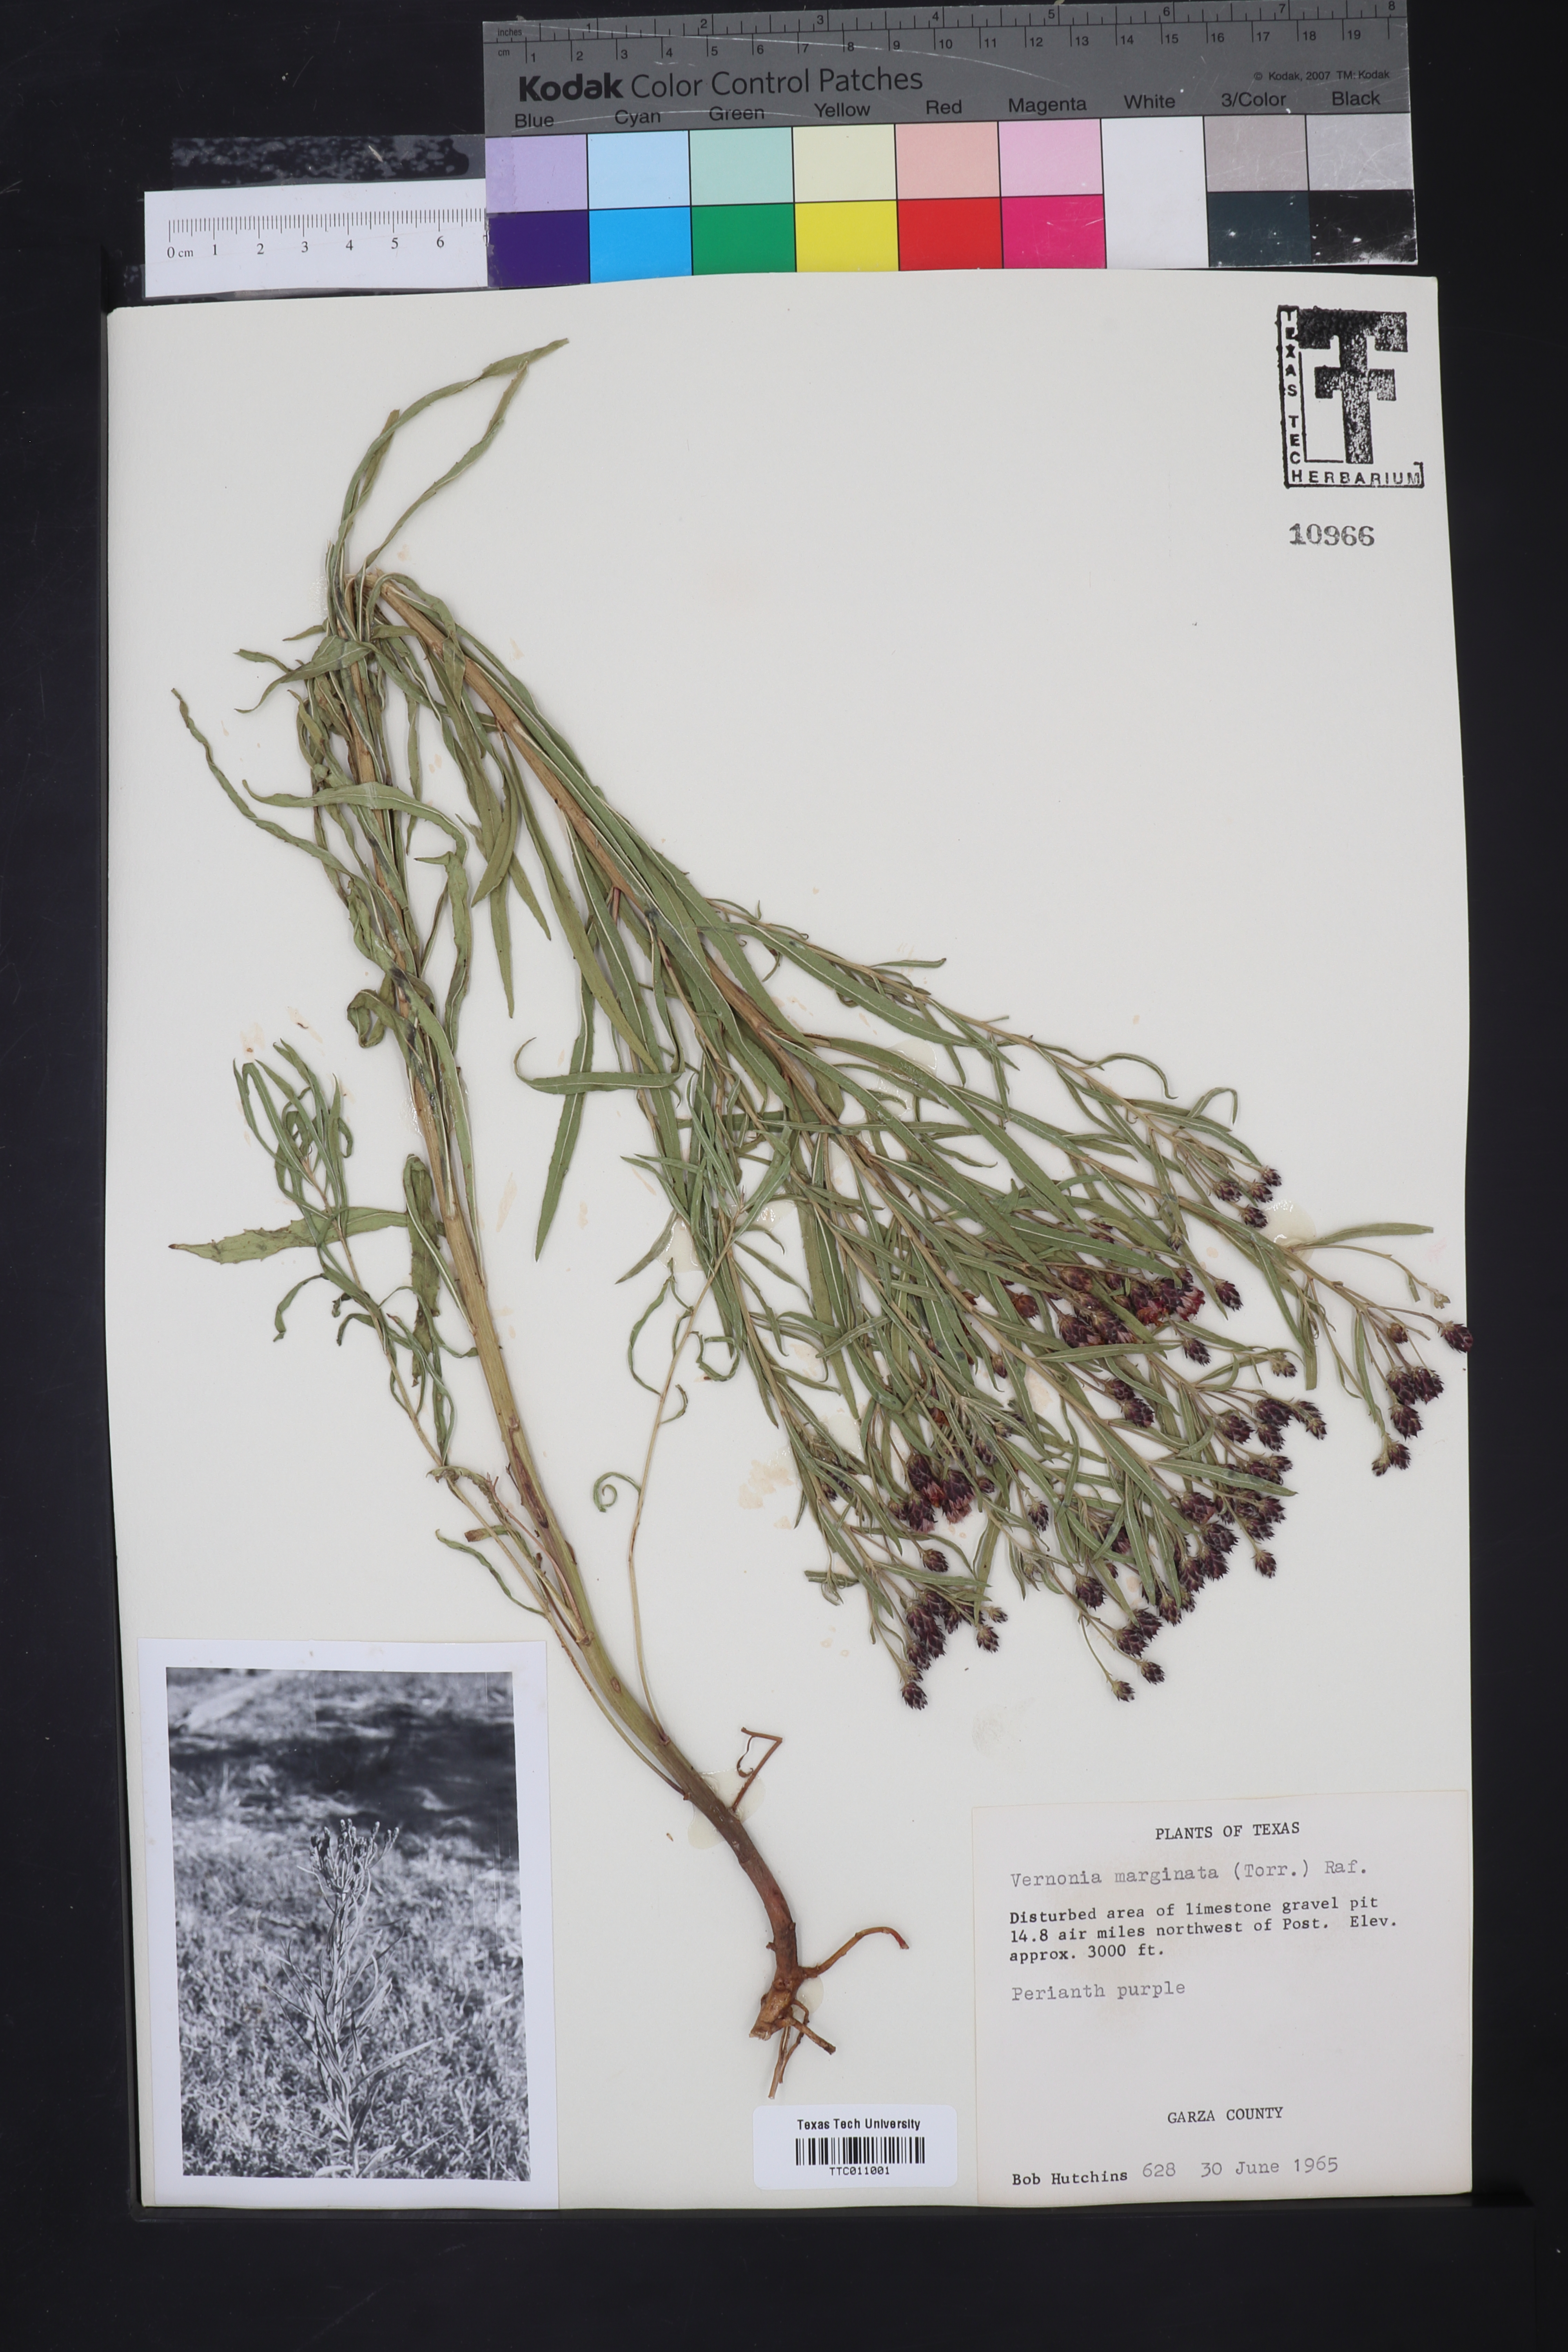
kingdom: Plantae
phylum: Tracheophyta
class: Magnoliopsida
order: Asterales
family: Asteraceae
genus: Vernonia
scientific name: Vernonia marginata
